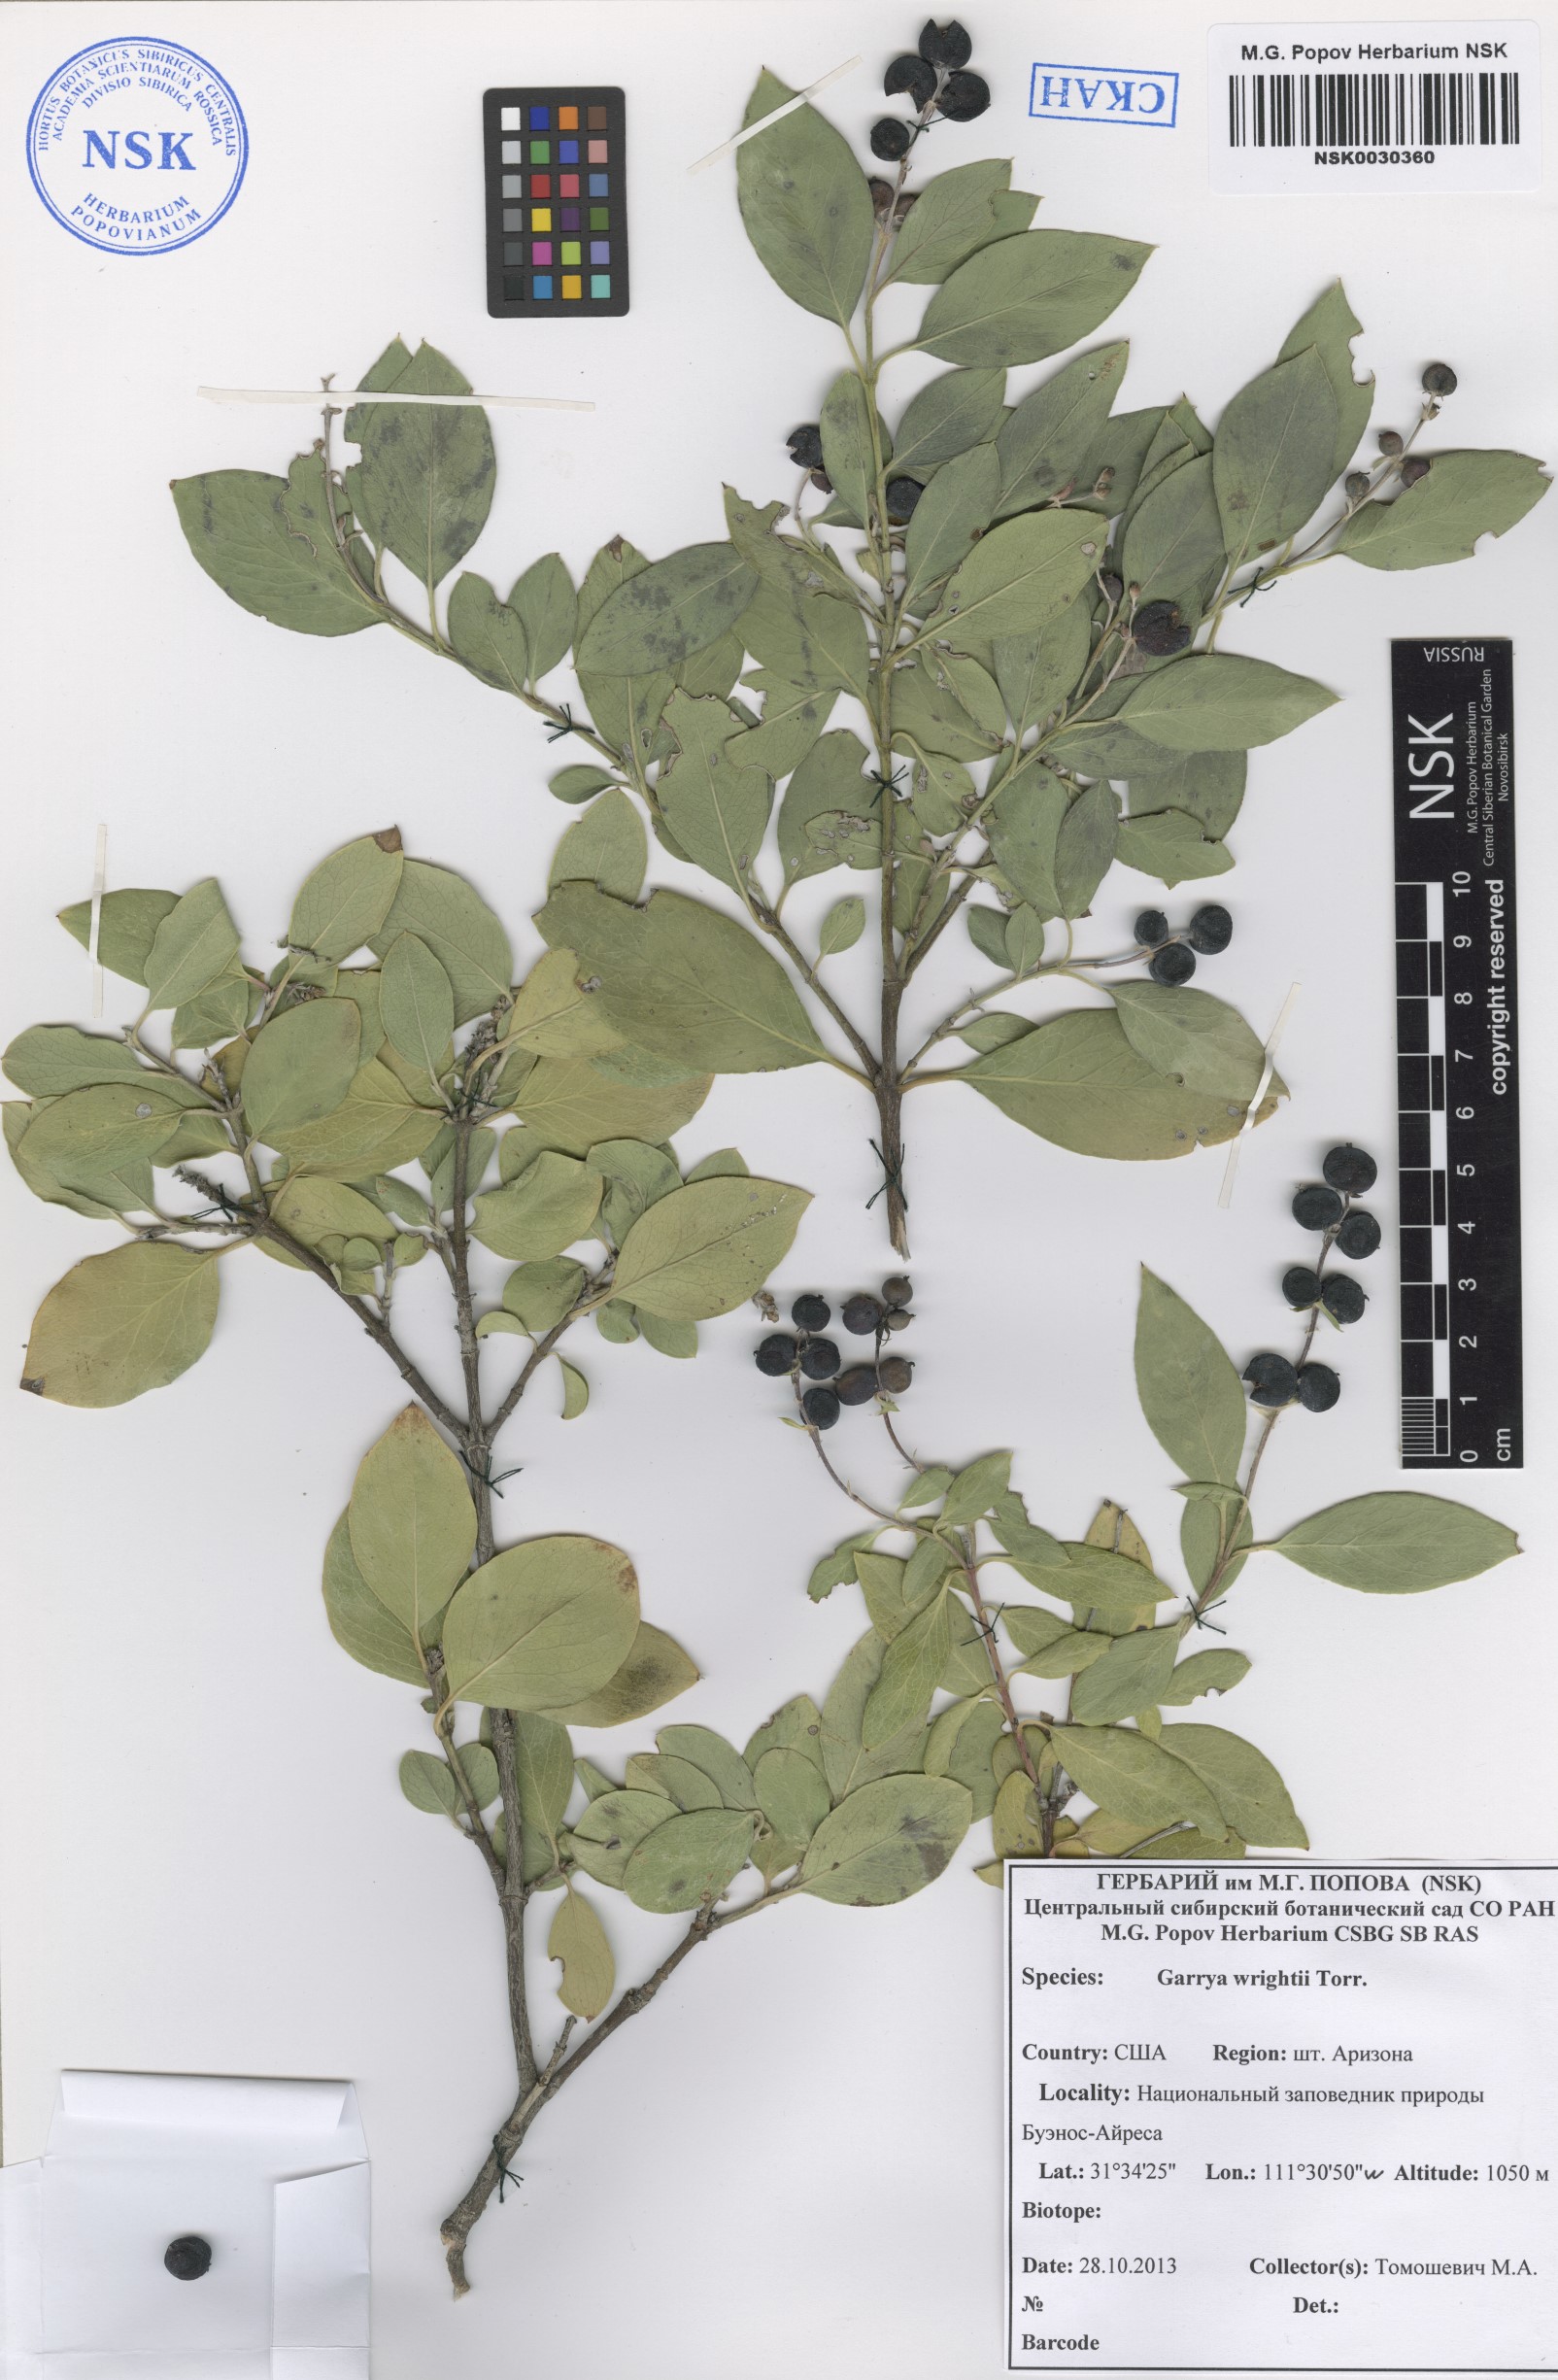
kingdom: Plantae
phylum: Tracheophyta
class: Magnoliopsida
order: Garryales
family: Garryaceae
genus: Garrya
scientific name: Garrya wrightii
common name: Wright's silktassel
